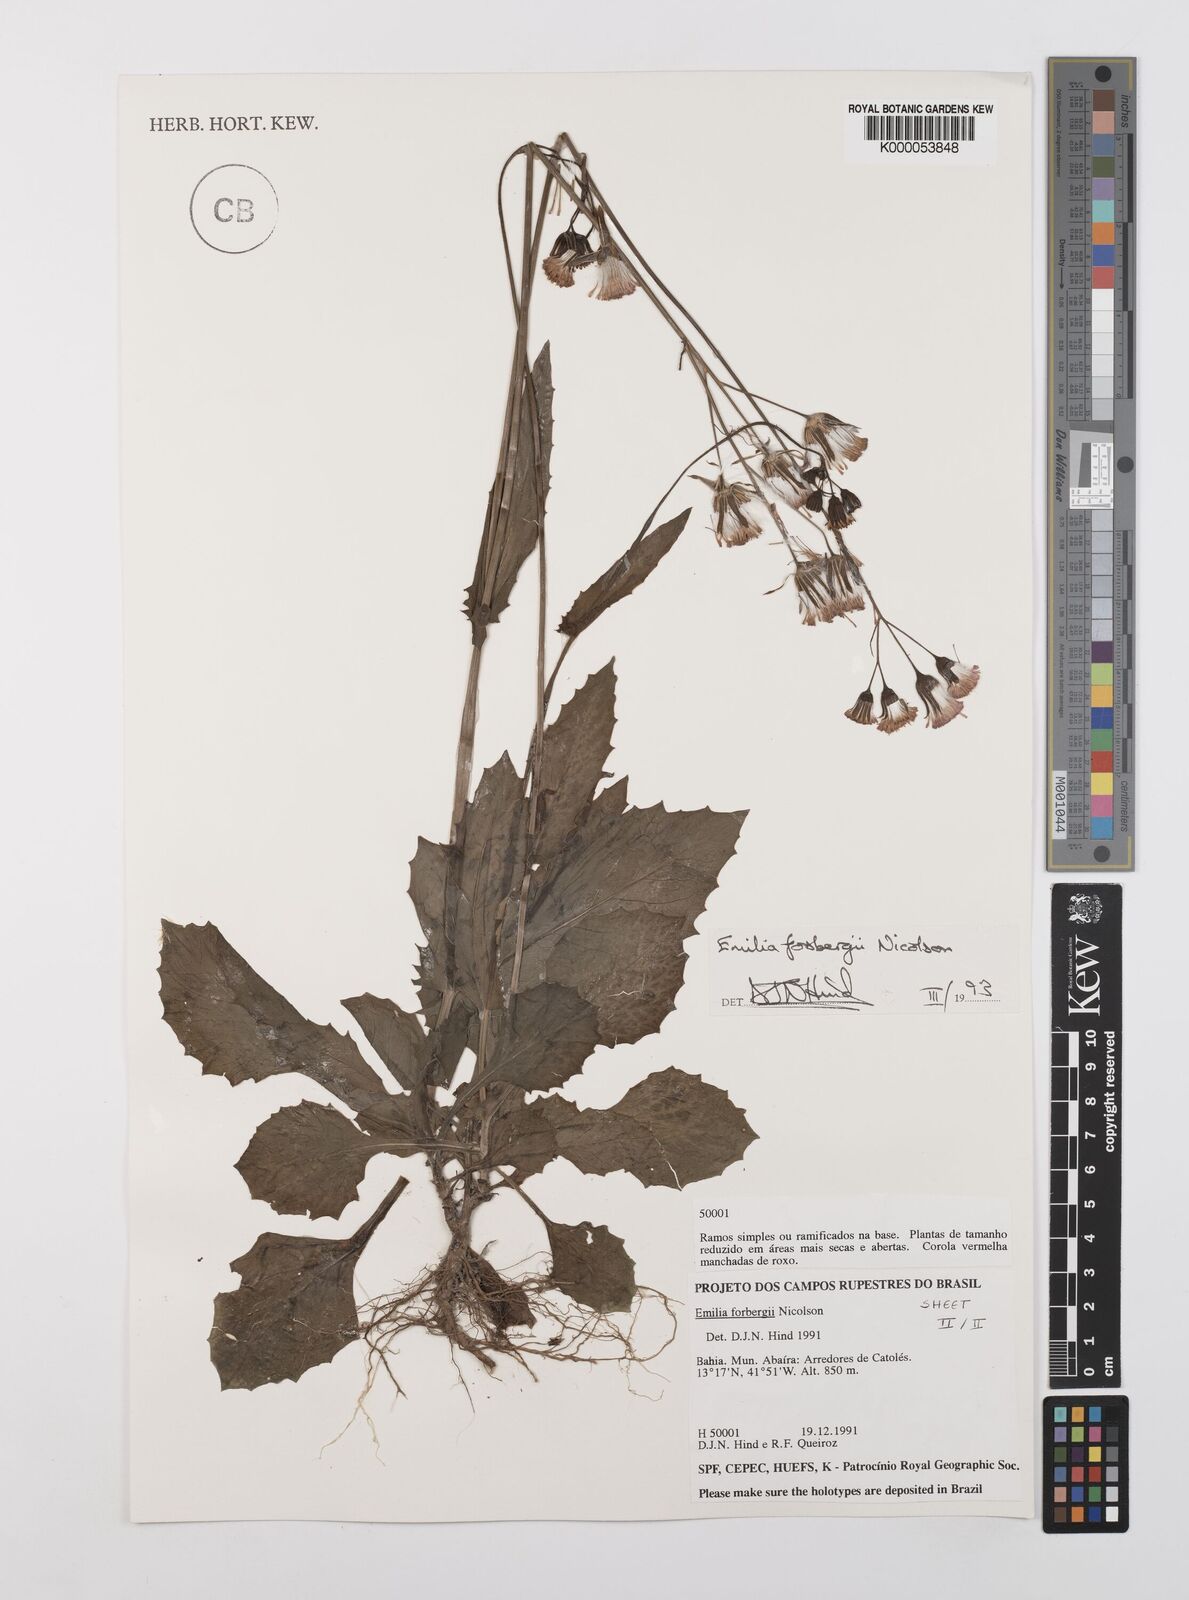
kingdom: Plantae
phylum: Tracheophyta
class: Magnoliopsida
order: Asterales
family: Asteraceae
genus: Emilia
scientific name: Emilia fosbergii
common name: Florida tasselflower
